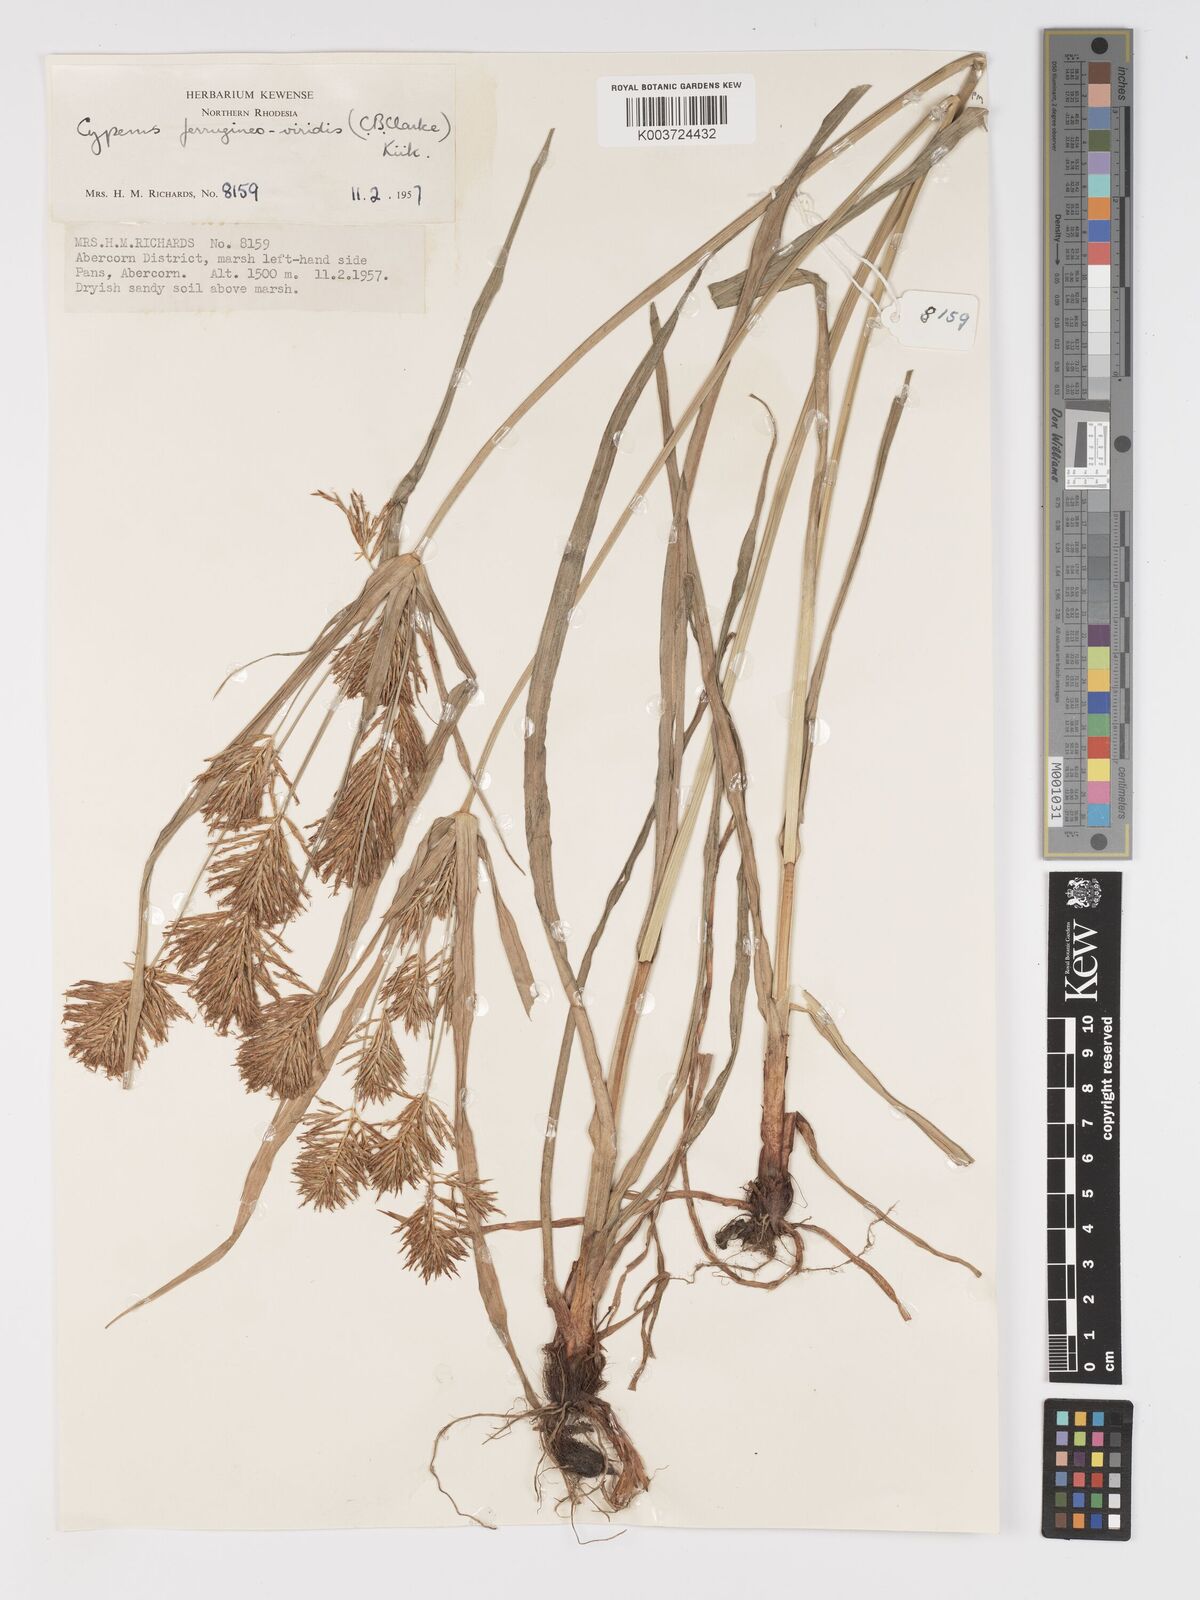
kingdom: Plantae
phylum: Tracheophyta
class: Liliopsida
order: Poales
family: Cyperaceae
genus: Cyperus
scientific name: Cyperus ferrugineoviridis
